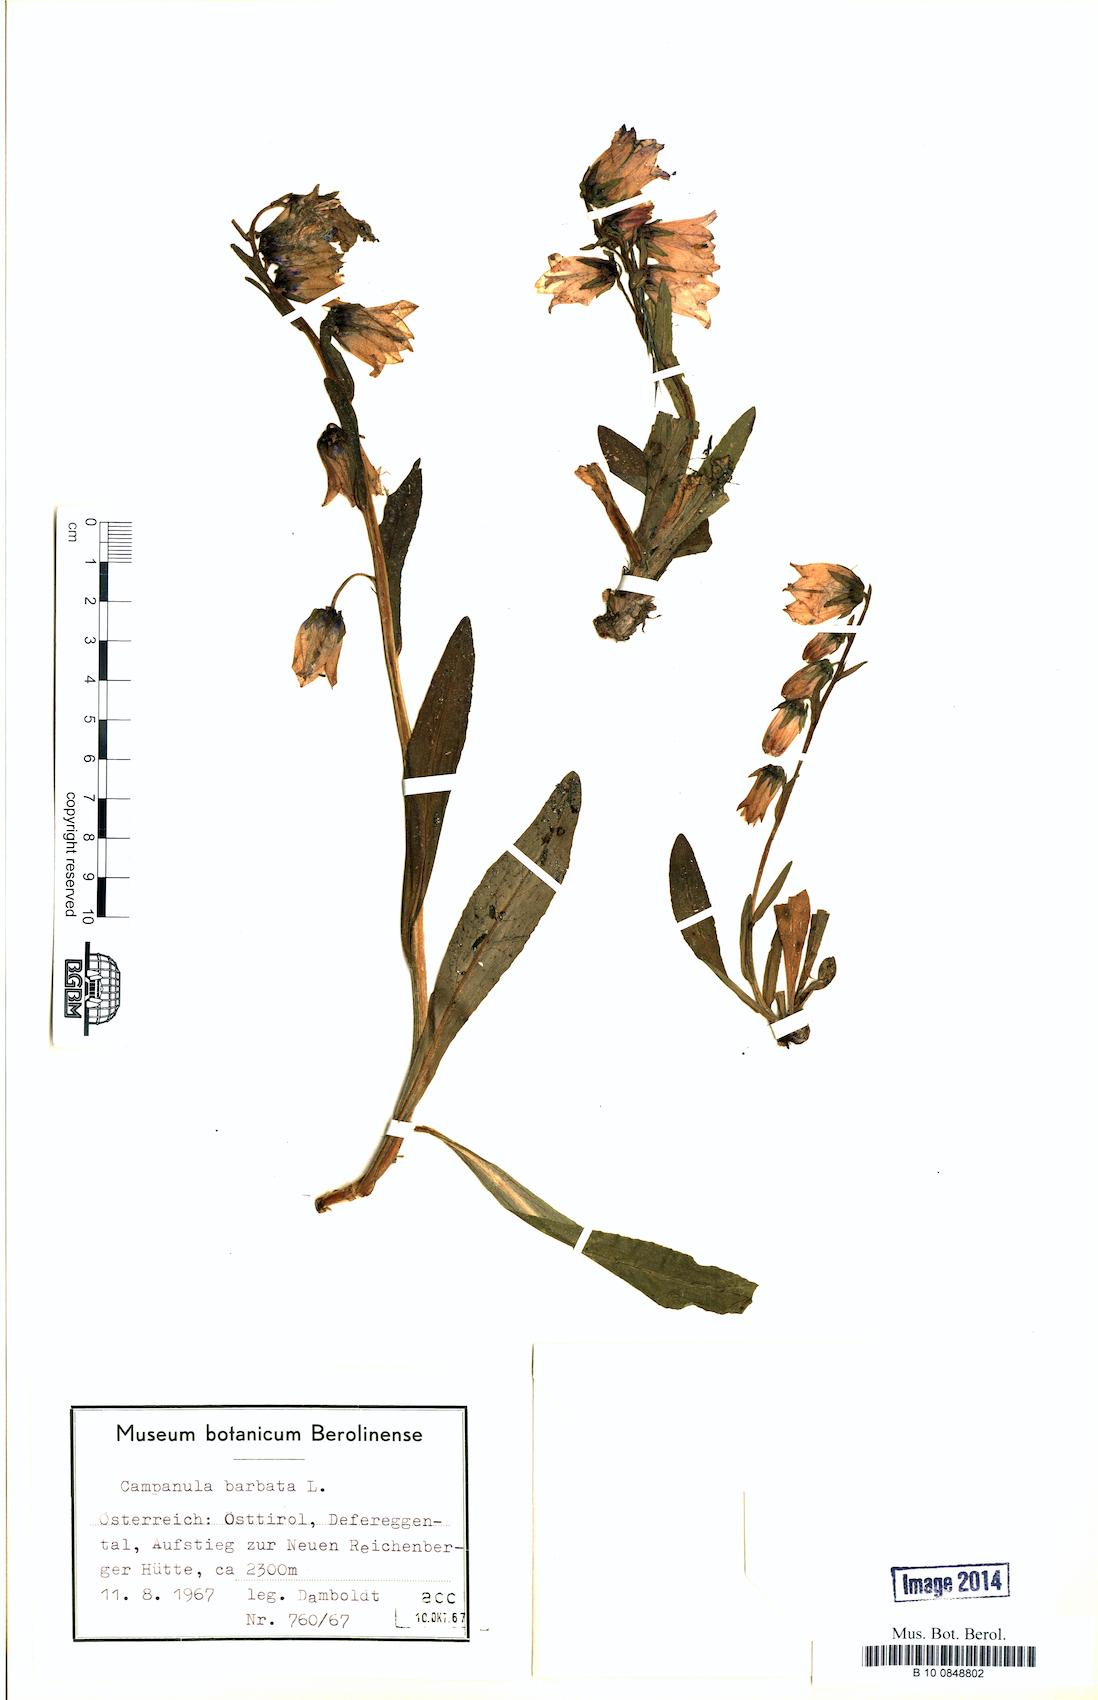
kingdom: Plantae
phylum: Tracheophyta
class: Magnoliopsida
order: Asterales
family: Campanulaceae
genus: Campanula
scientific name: Campanula barbata
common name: Bearded bellflower
